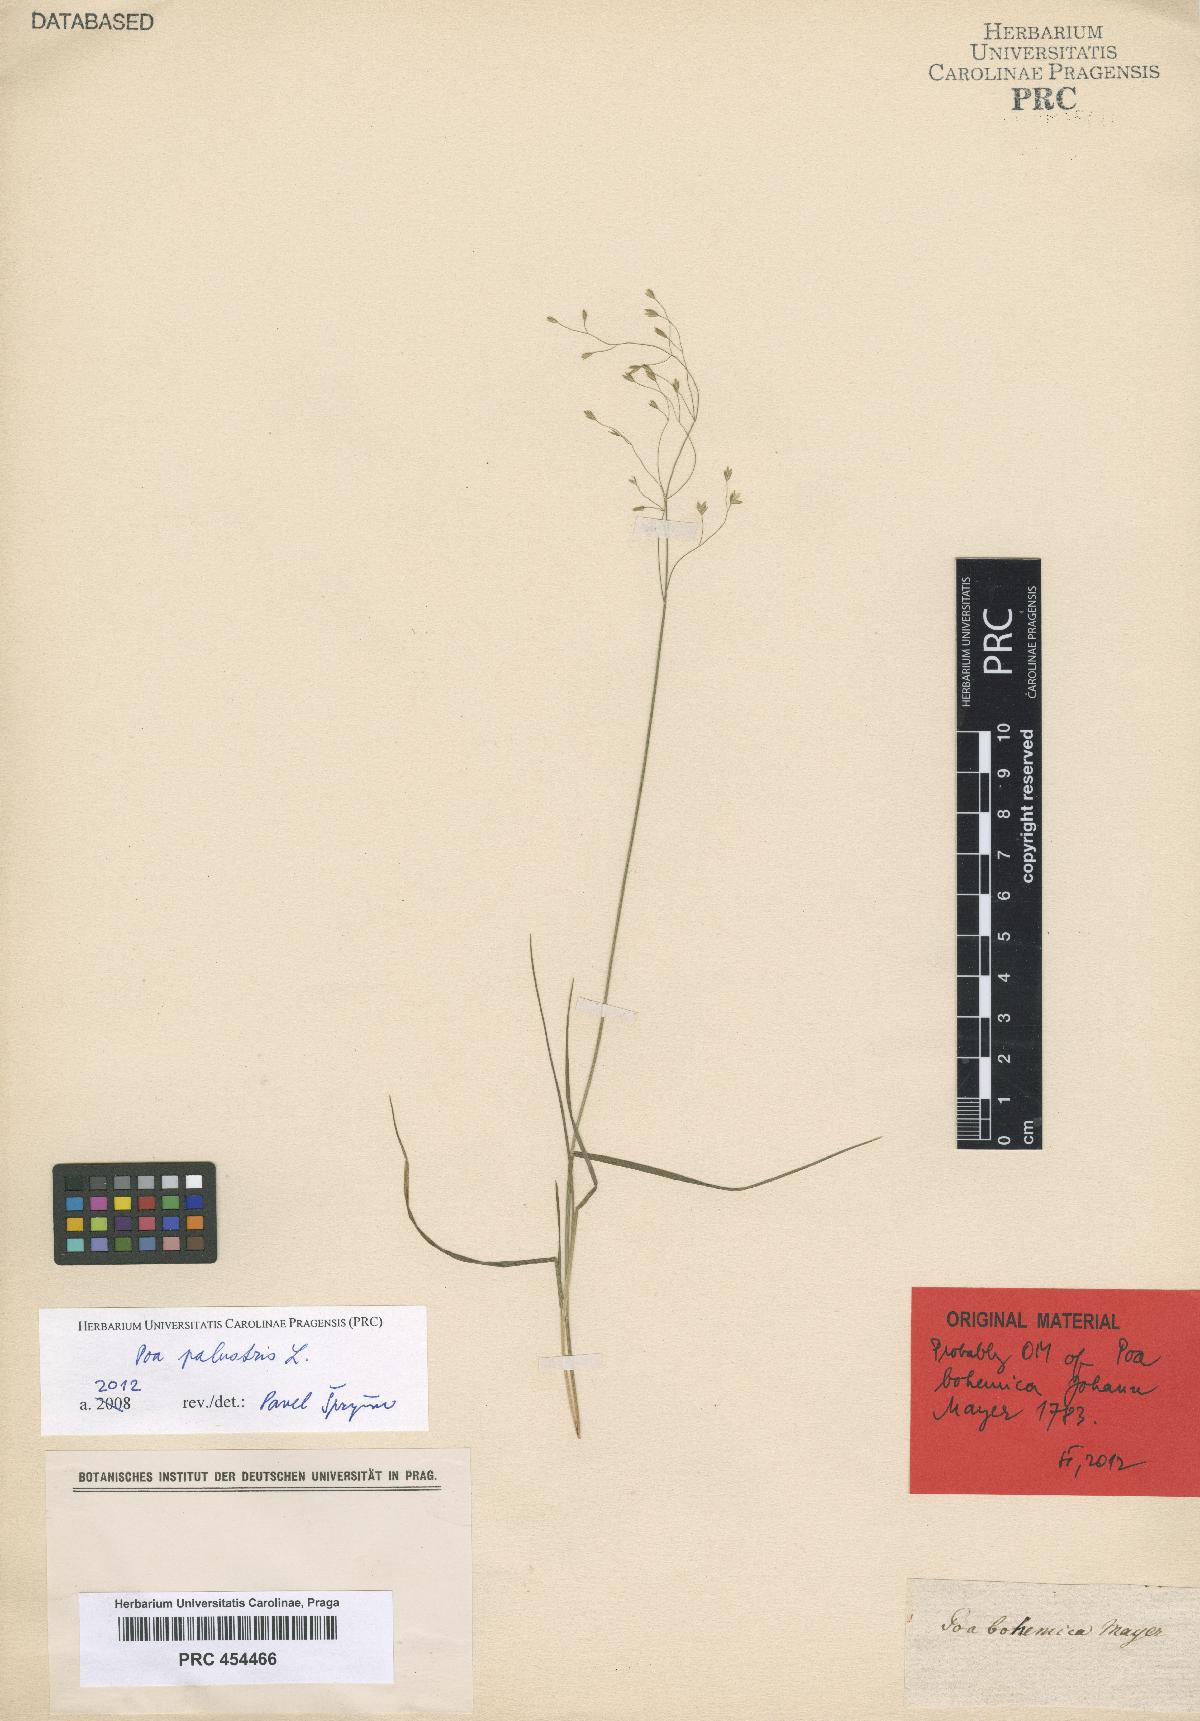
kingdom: Plantae
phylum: Tracheophyta
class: Liliopsida
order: Poales
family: Poaceae
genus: Poa
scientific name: Poa palustris
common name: Swamp meadow-grass
